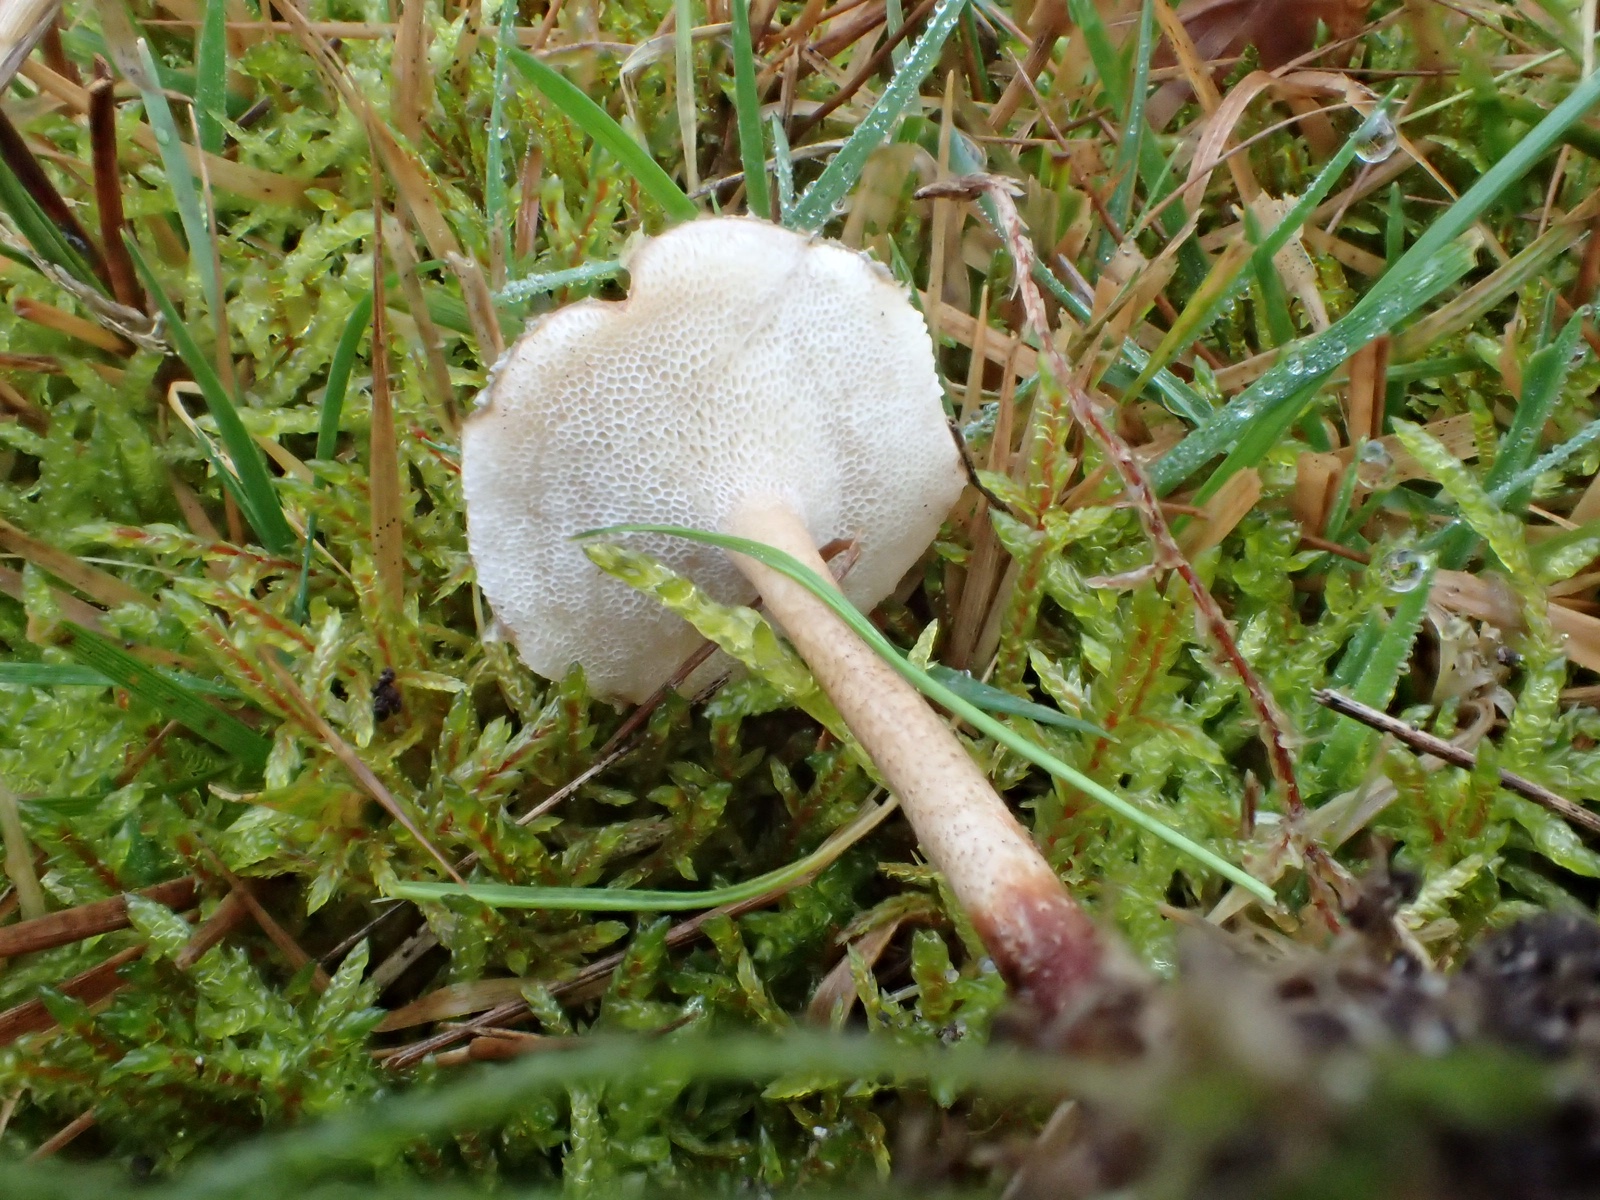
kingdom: Fungi
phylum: Basidiomycota
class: Agaricomycetes
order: Polyporales
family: Polyporaceae
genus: Lentinus
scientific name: Lentinus brumalis
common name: vinter-stilkporesvamp
